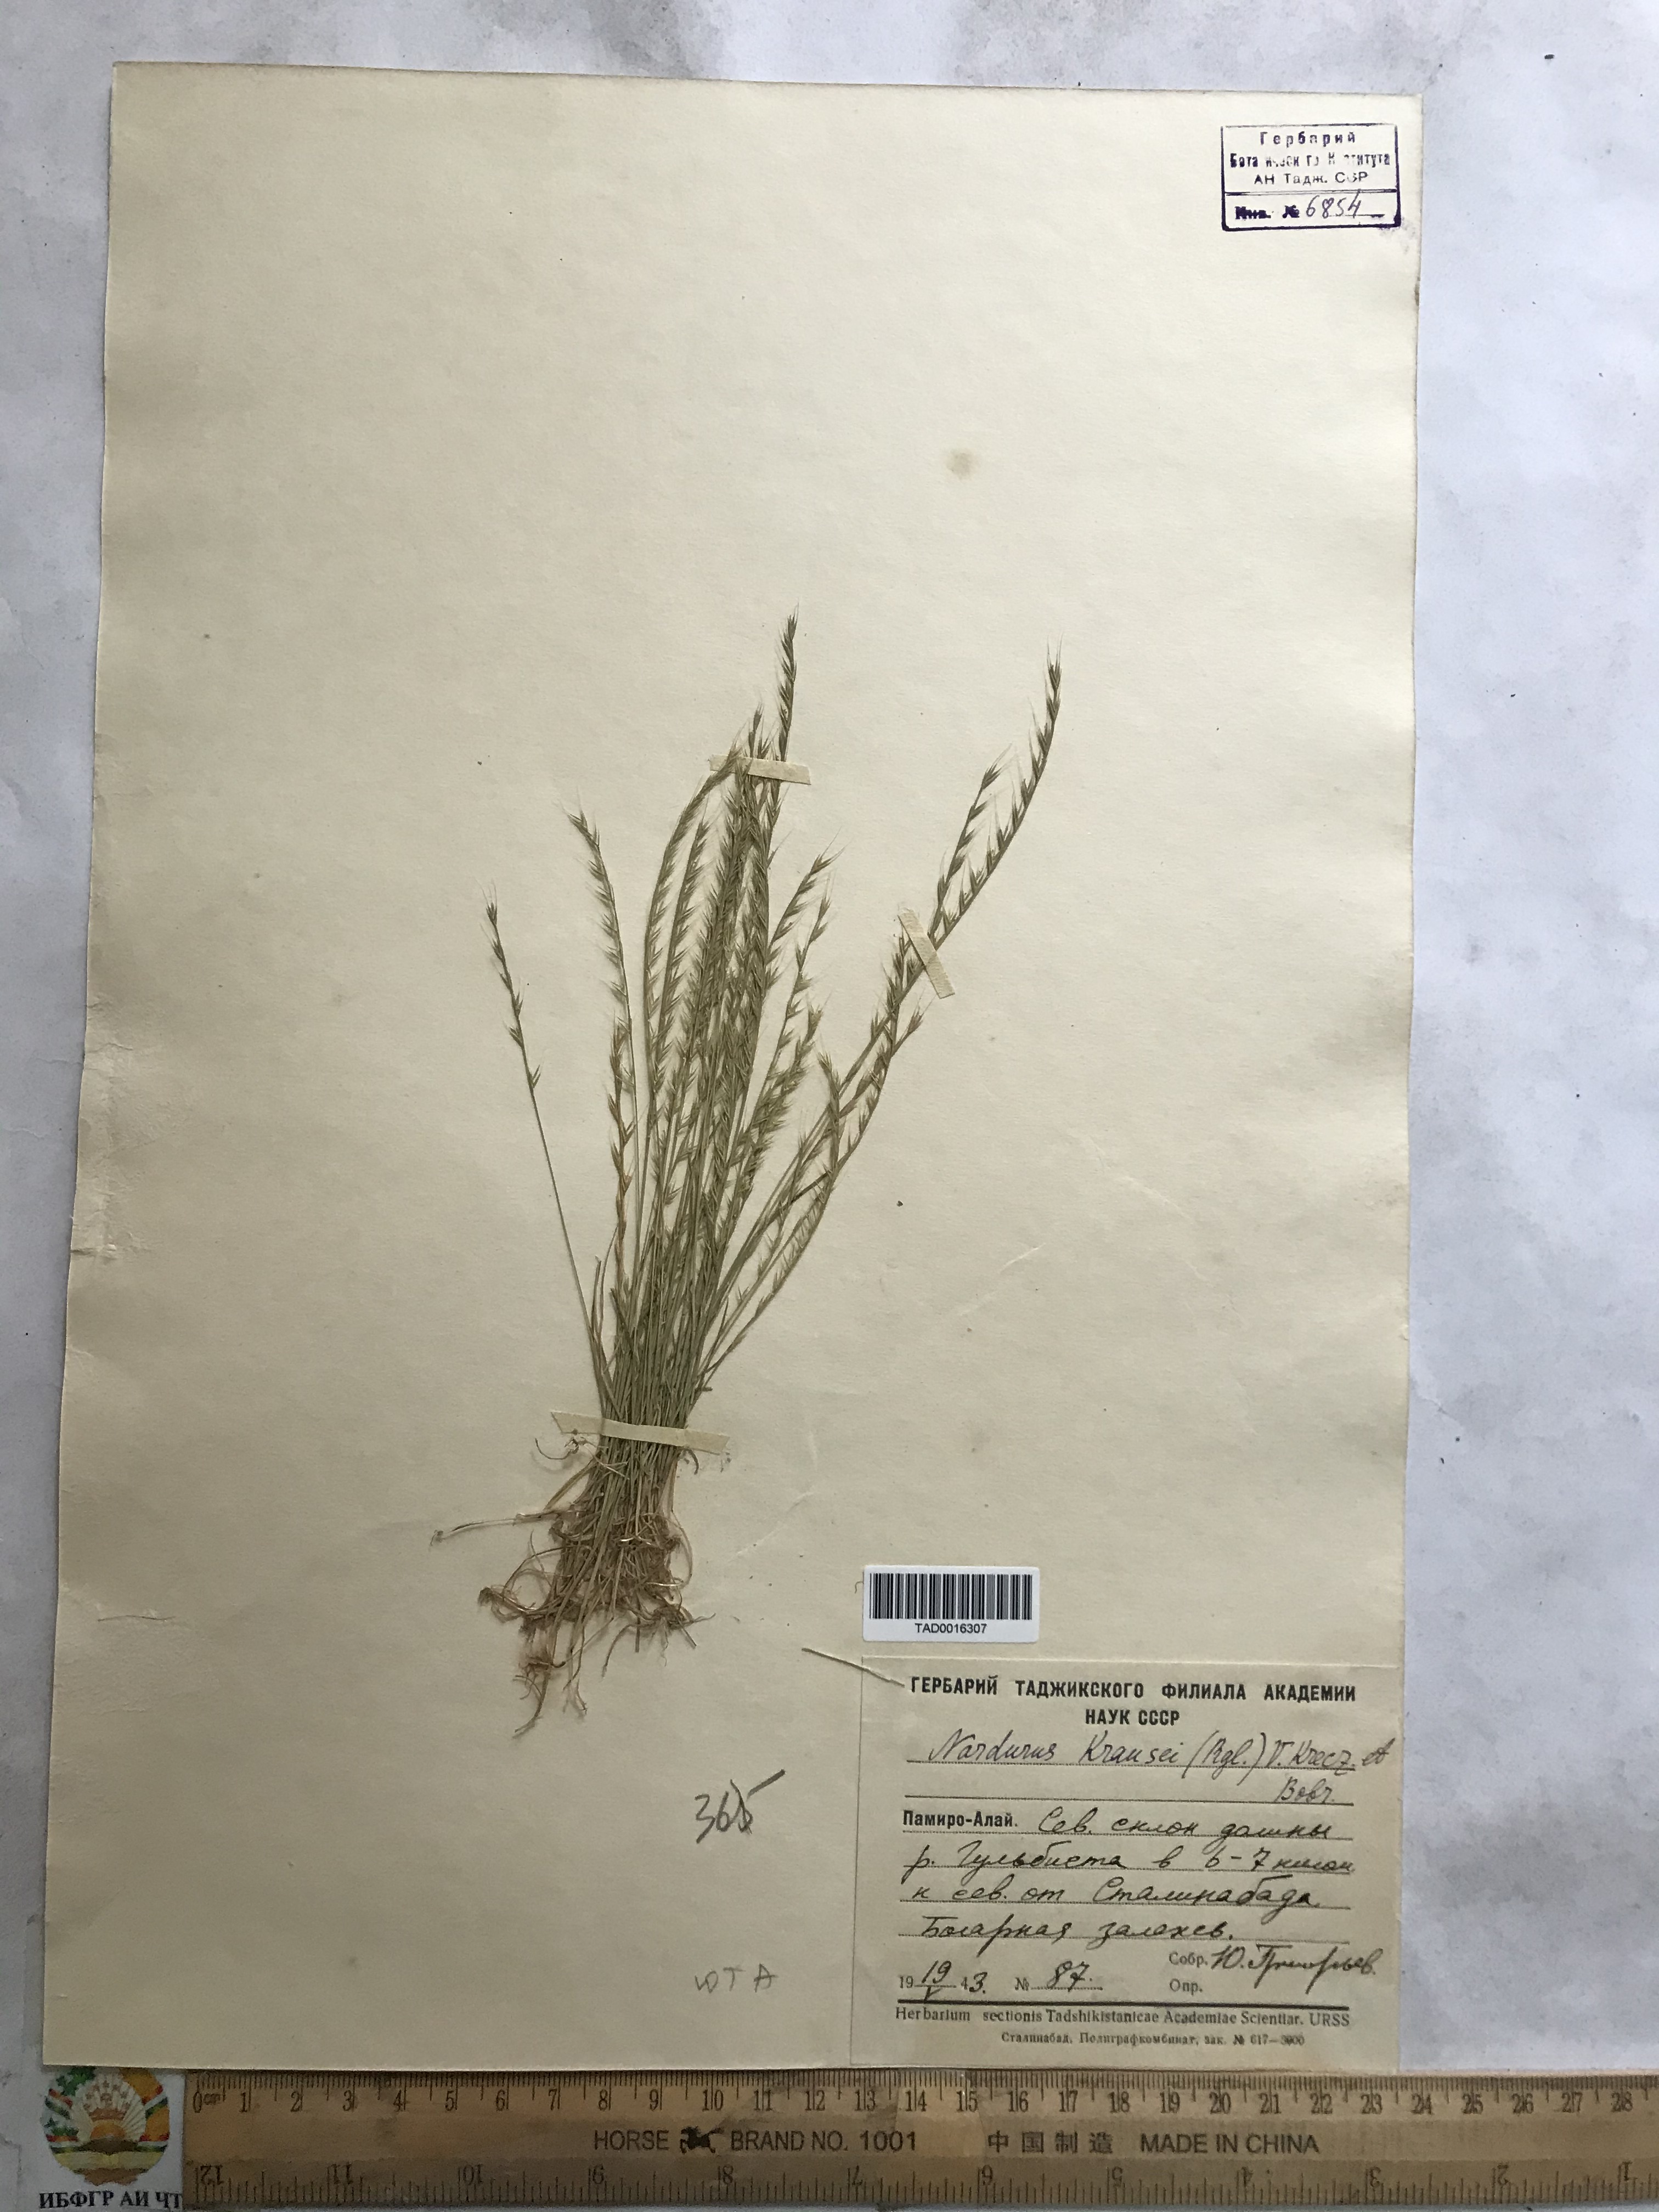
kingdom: Plantae
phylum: Tracheophyta
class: Liliopsida
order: Poales
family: Poaceae
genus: Festuca
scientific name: Festuca maritima
